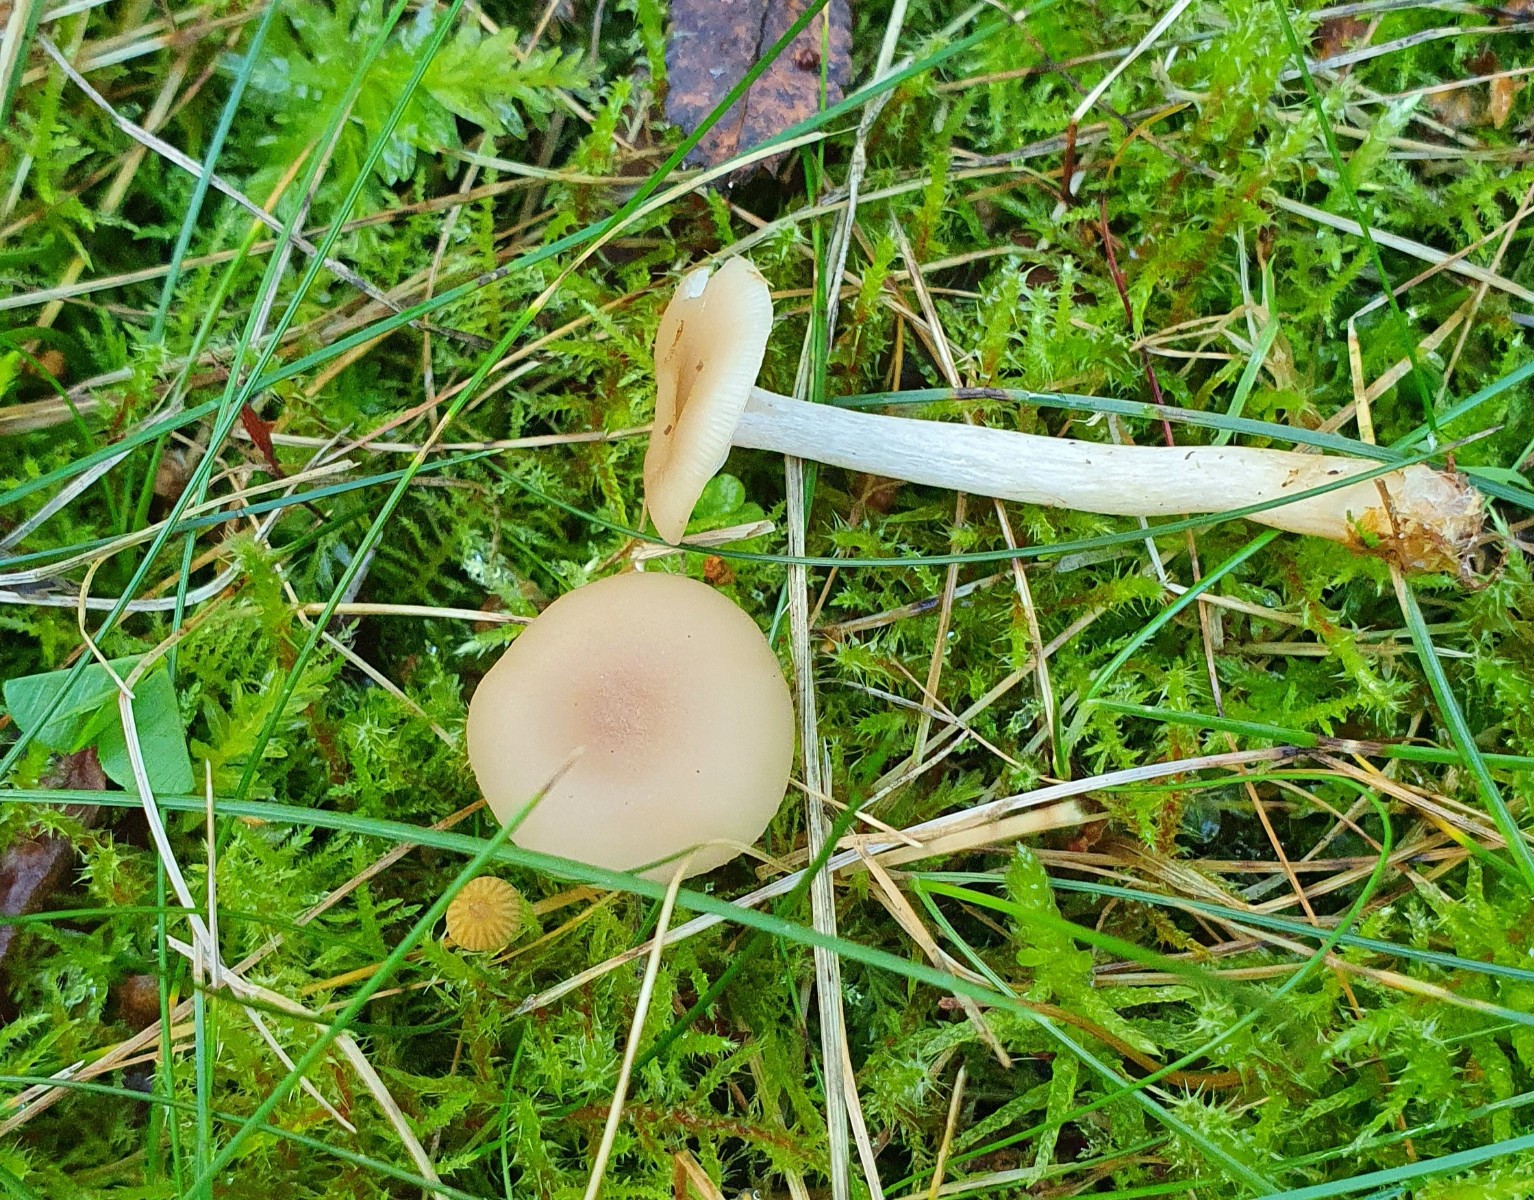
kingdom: Fungi
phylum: Basidiomycota
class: Agaricomycetes
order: Agaricales
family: Tricholomataceae
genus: Clitocybe
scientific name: Clitocybe fragrans
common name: vellugtende tragthat
